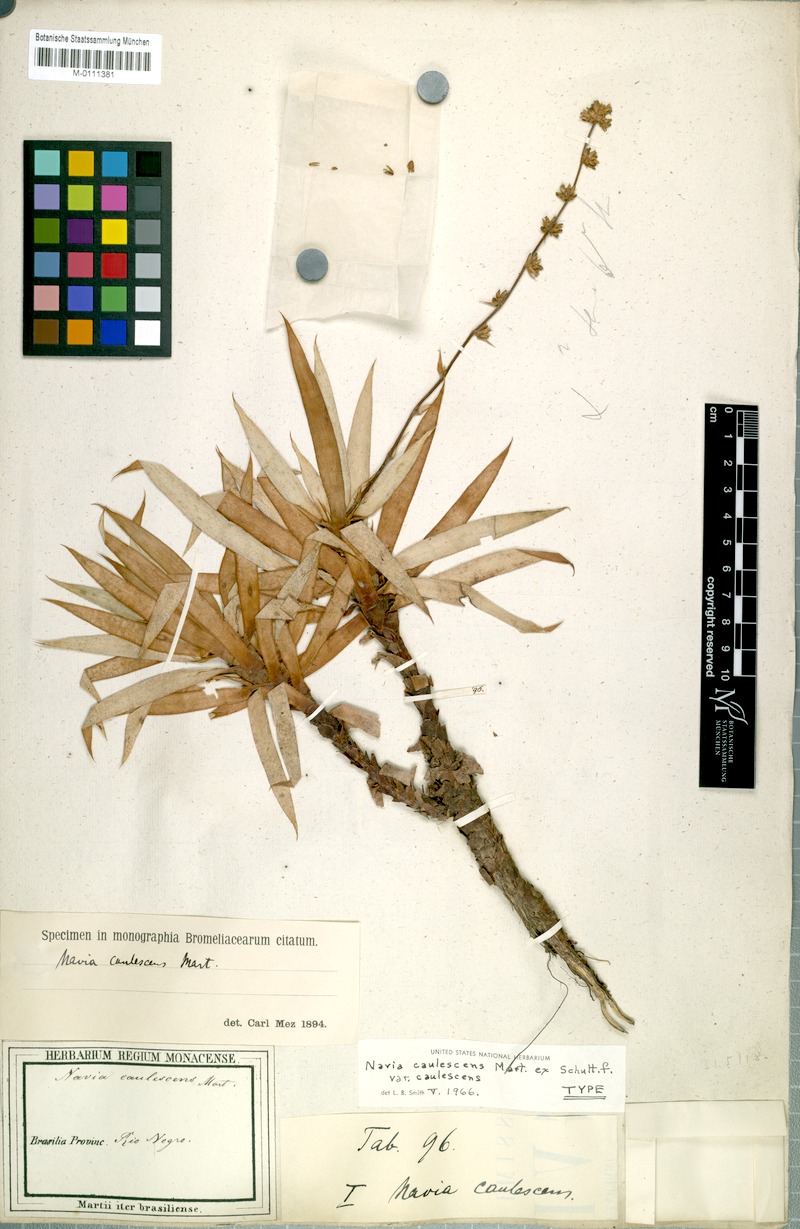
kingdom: Plantae
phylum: Tracheophyta
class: Liliopsida
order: Poales
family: Bromeliaceae
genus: Navia
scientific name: Navia caulescens
